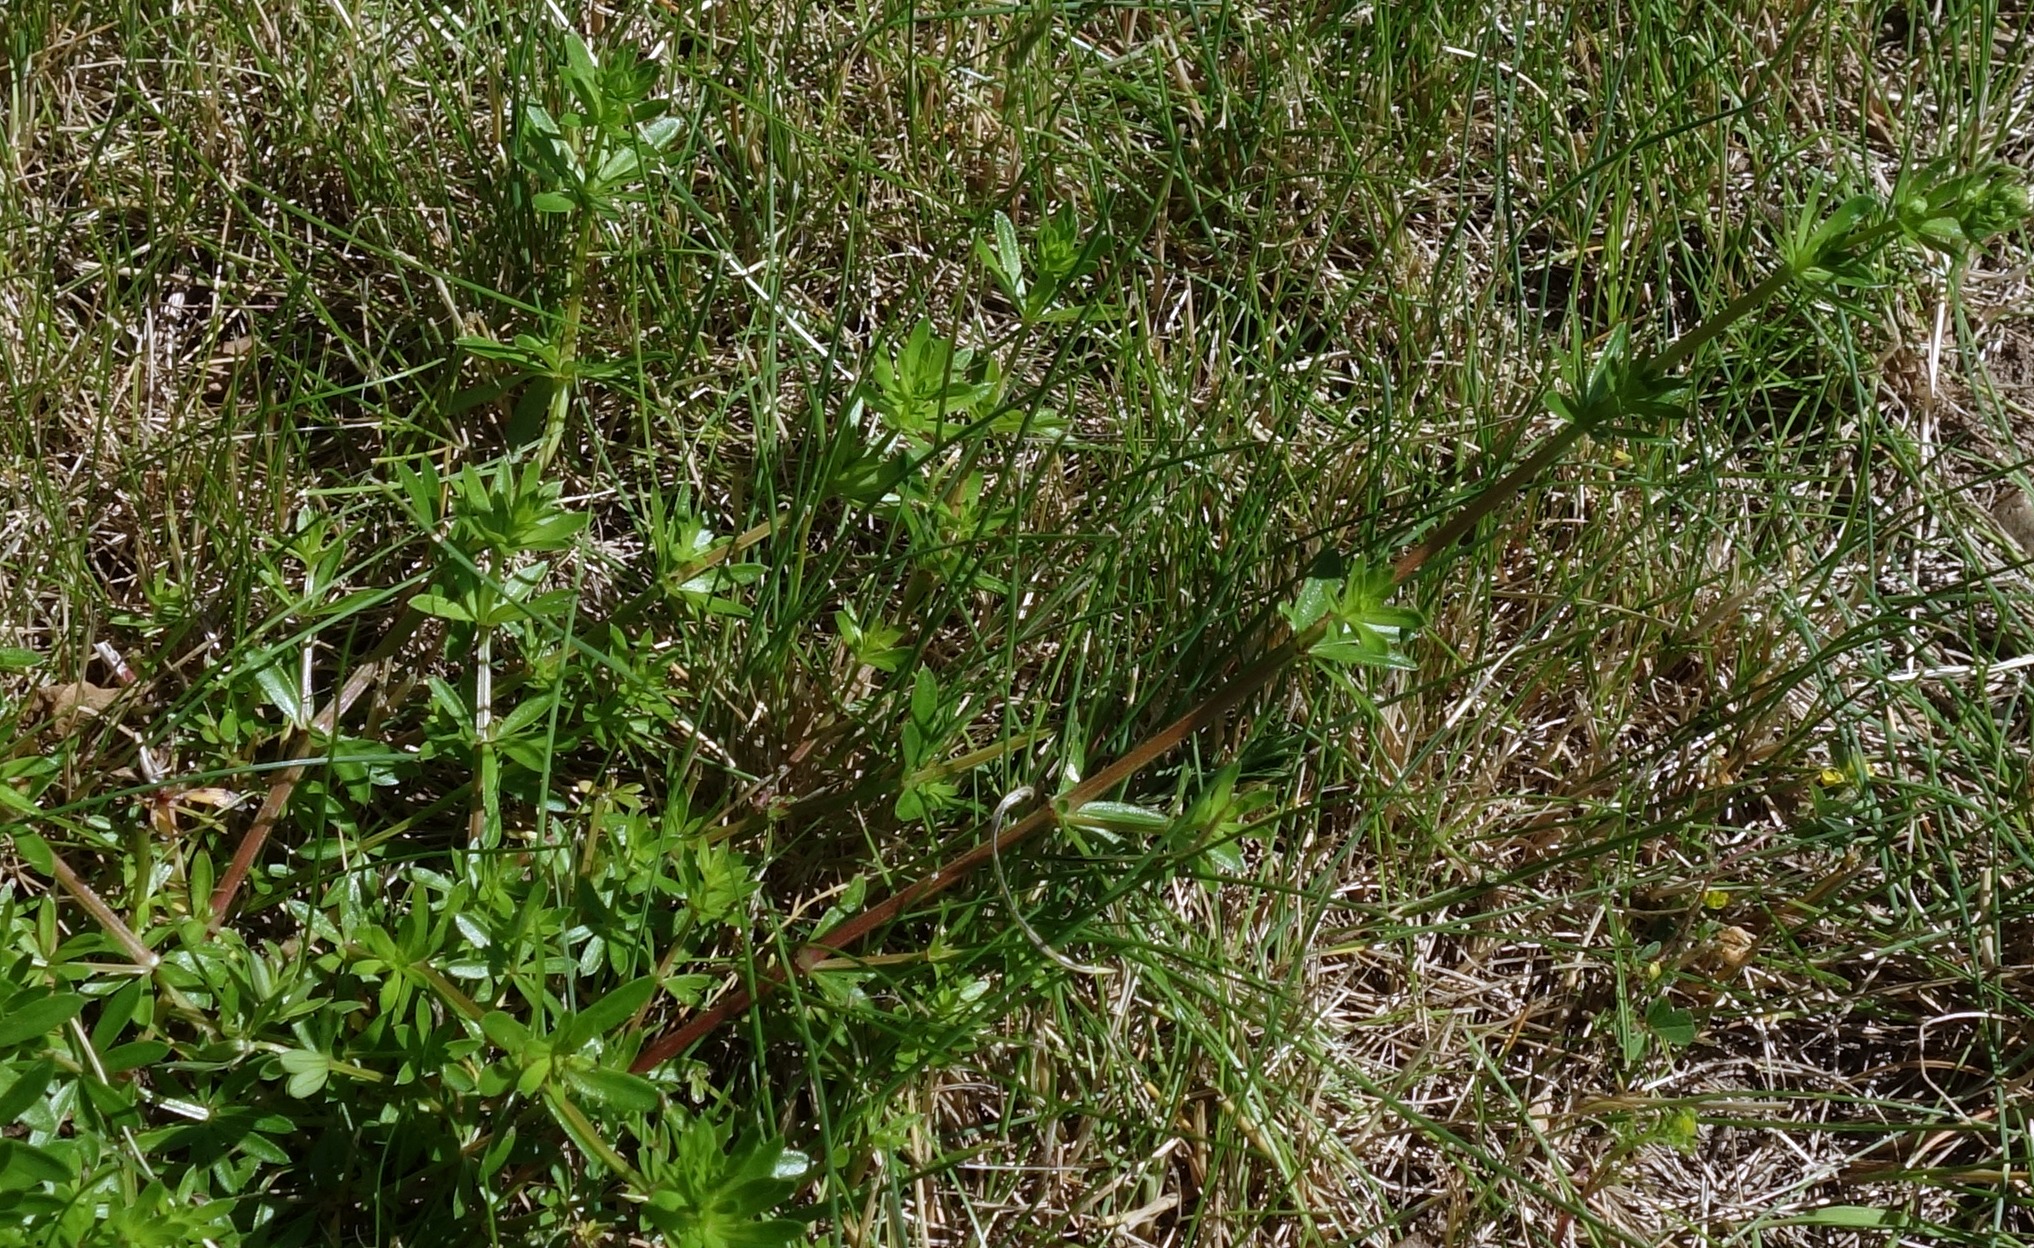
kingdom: Plantae
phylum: Tracheophyta
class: Magnoliopsida
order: Gentianales
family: Rubiaceae
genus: Galium
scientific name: Galium mollugo
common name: Hvid snerre
